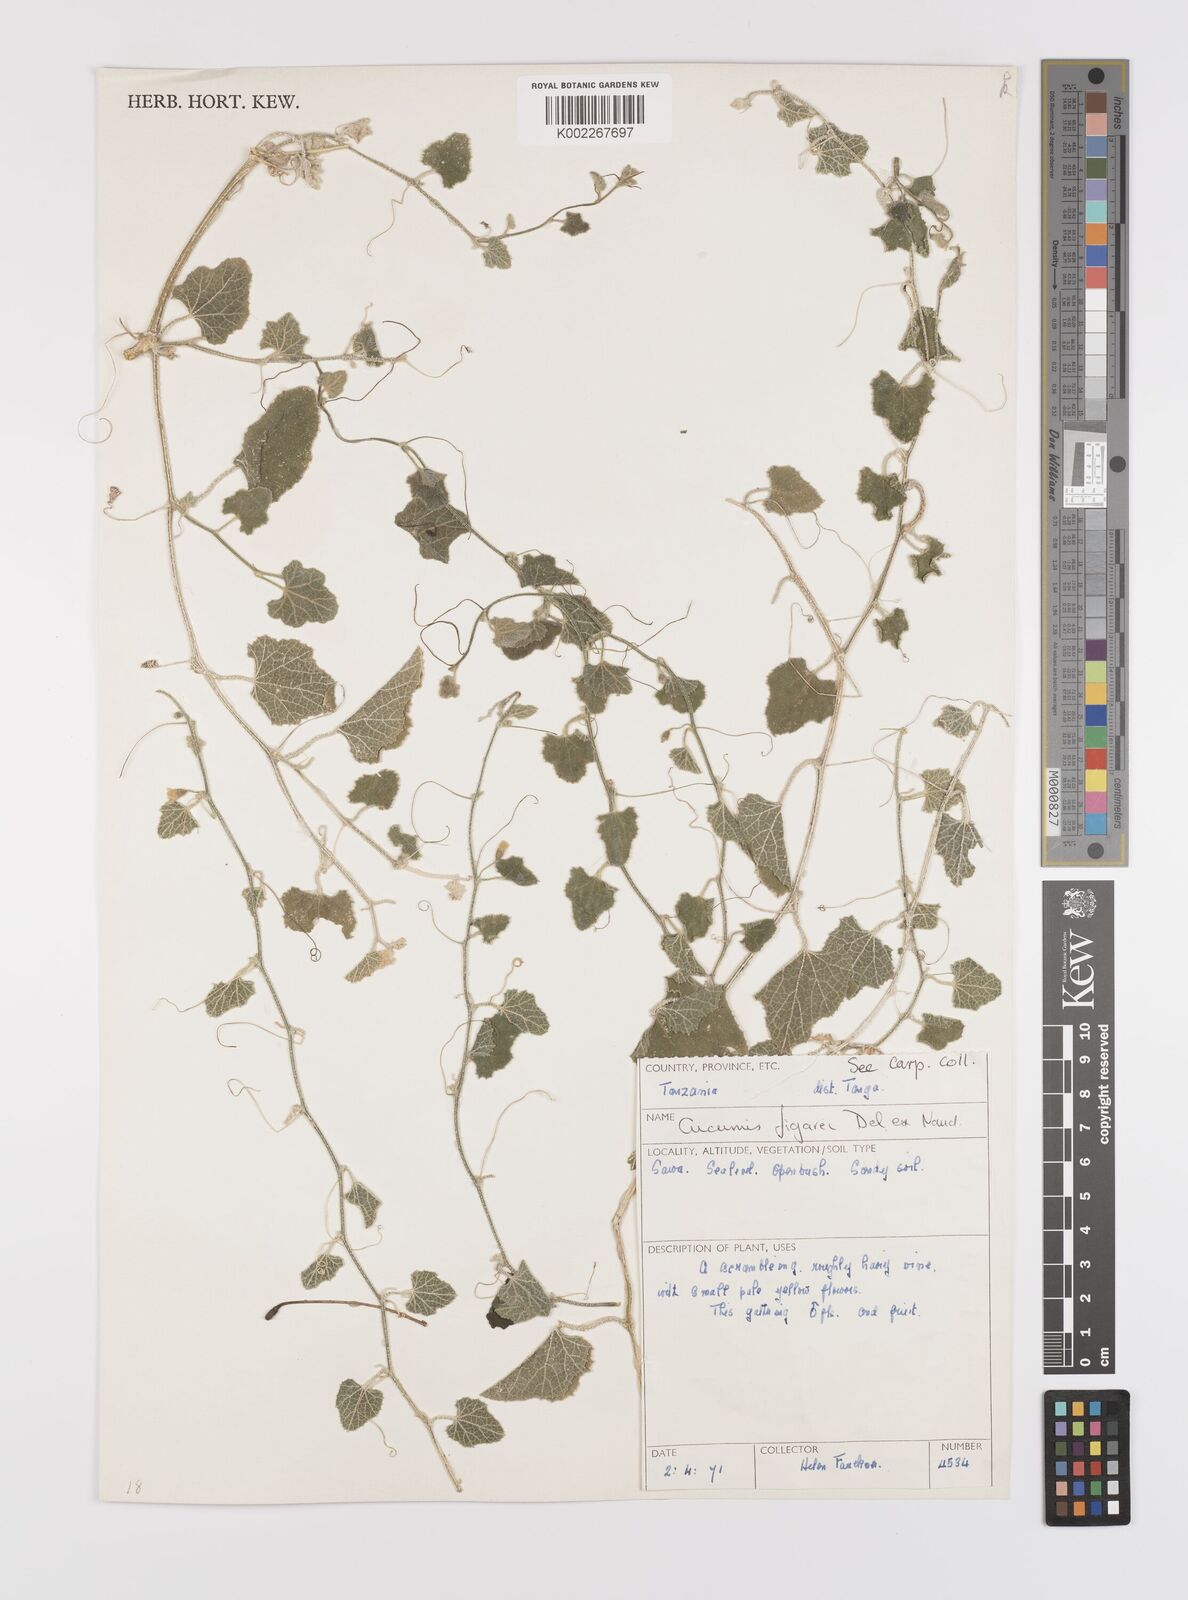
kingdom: Plantae
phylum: Tracheophyta
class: Magnoliopsida
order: Cucurbitales
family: Cucurbitaceae
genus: Cucumis
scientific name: Cucumis
